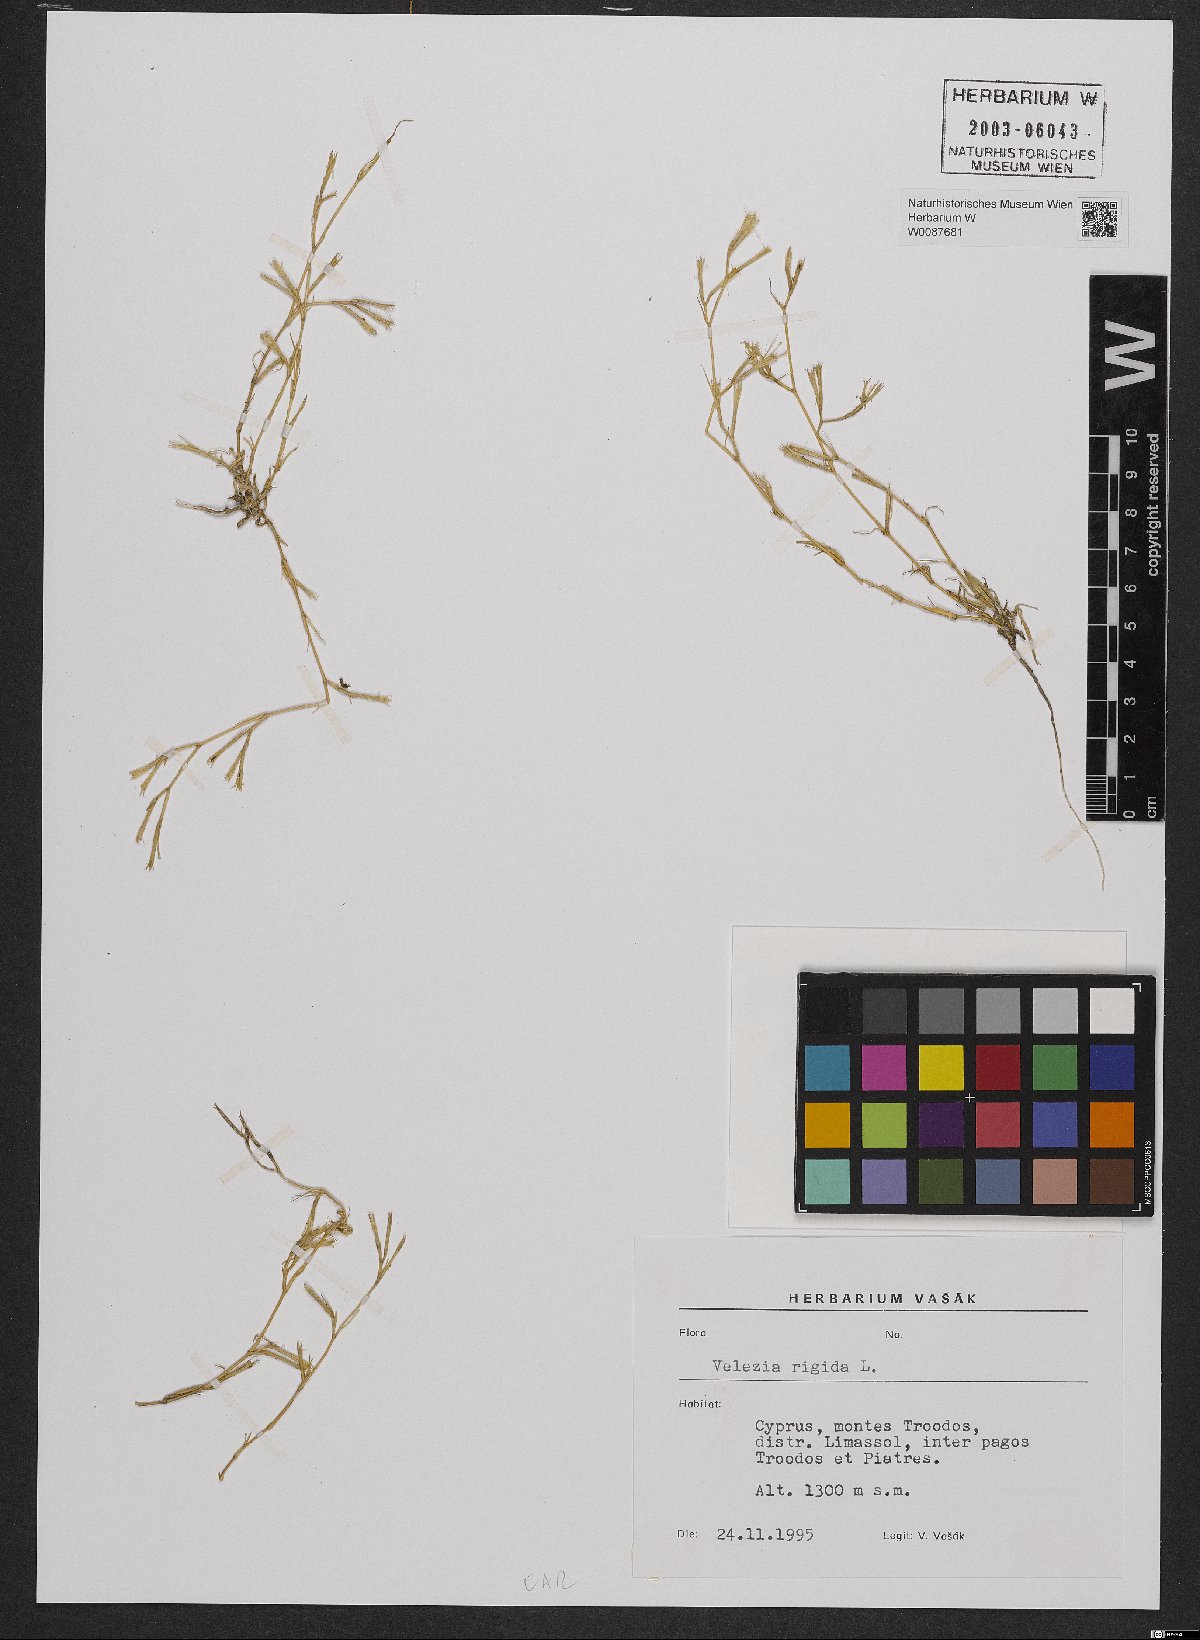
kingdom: Plantae
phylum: Tracheophyta
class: Magnoliopsida
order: Caryophyllales
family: Caryophyllaceae
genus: Dianthus
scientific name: Dianthus nudiflorus
